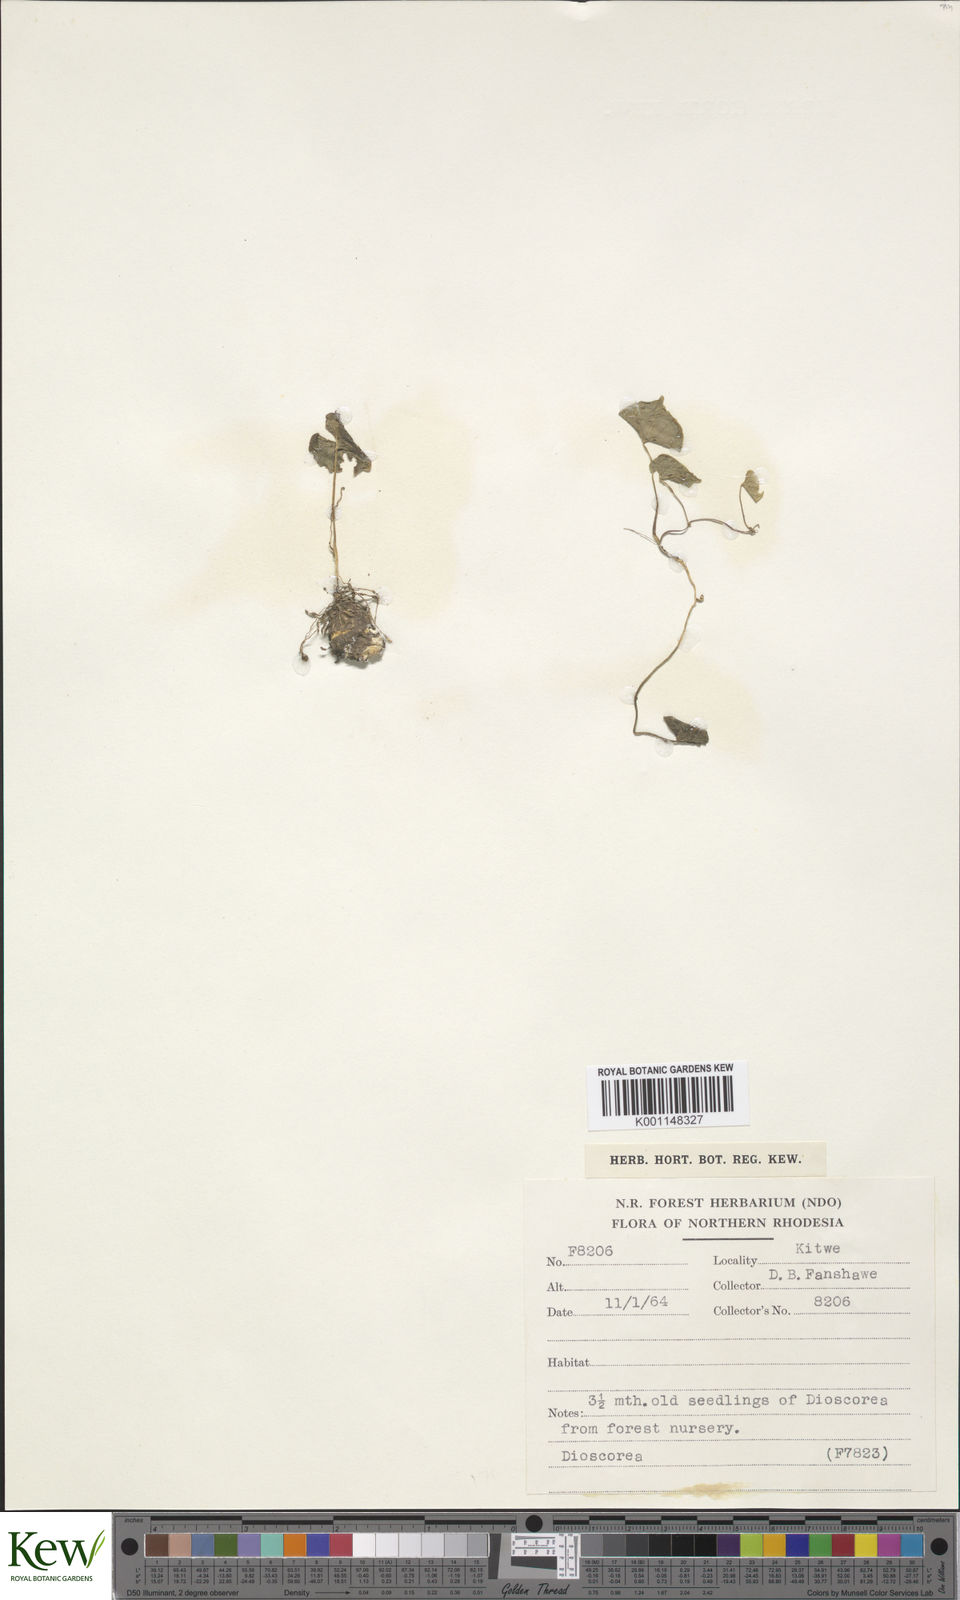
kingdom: Plantae
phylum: Tracheophyta
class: Liliopsida
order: Dioscoreales
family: Dioscoreaceae
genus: Dioscorea
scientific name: Dioscorea
